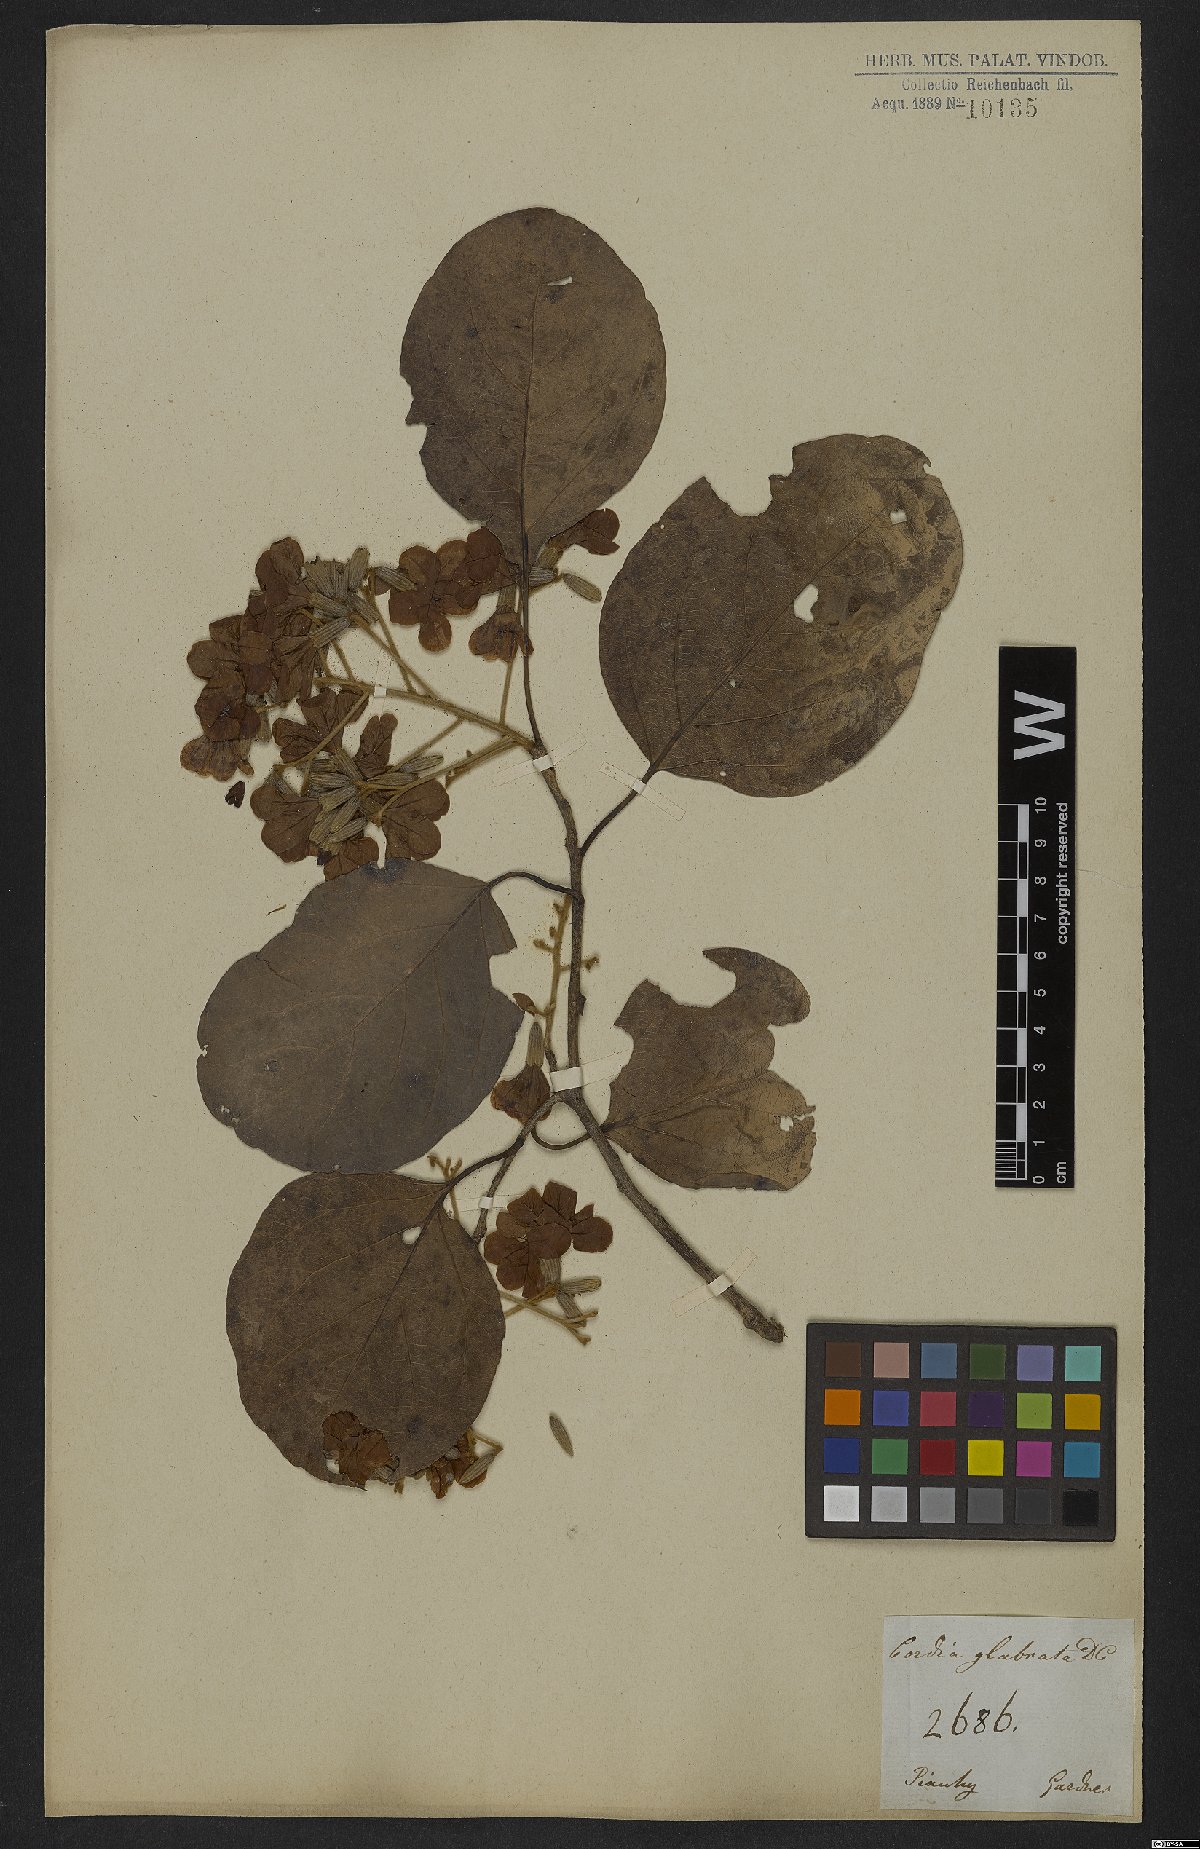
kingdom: Plantae
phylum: Tracheophyta
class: Magnoliopsida
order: Boraginales
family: Cordiaceae
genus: Cordia
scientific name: Cordia glabrata
